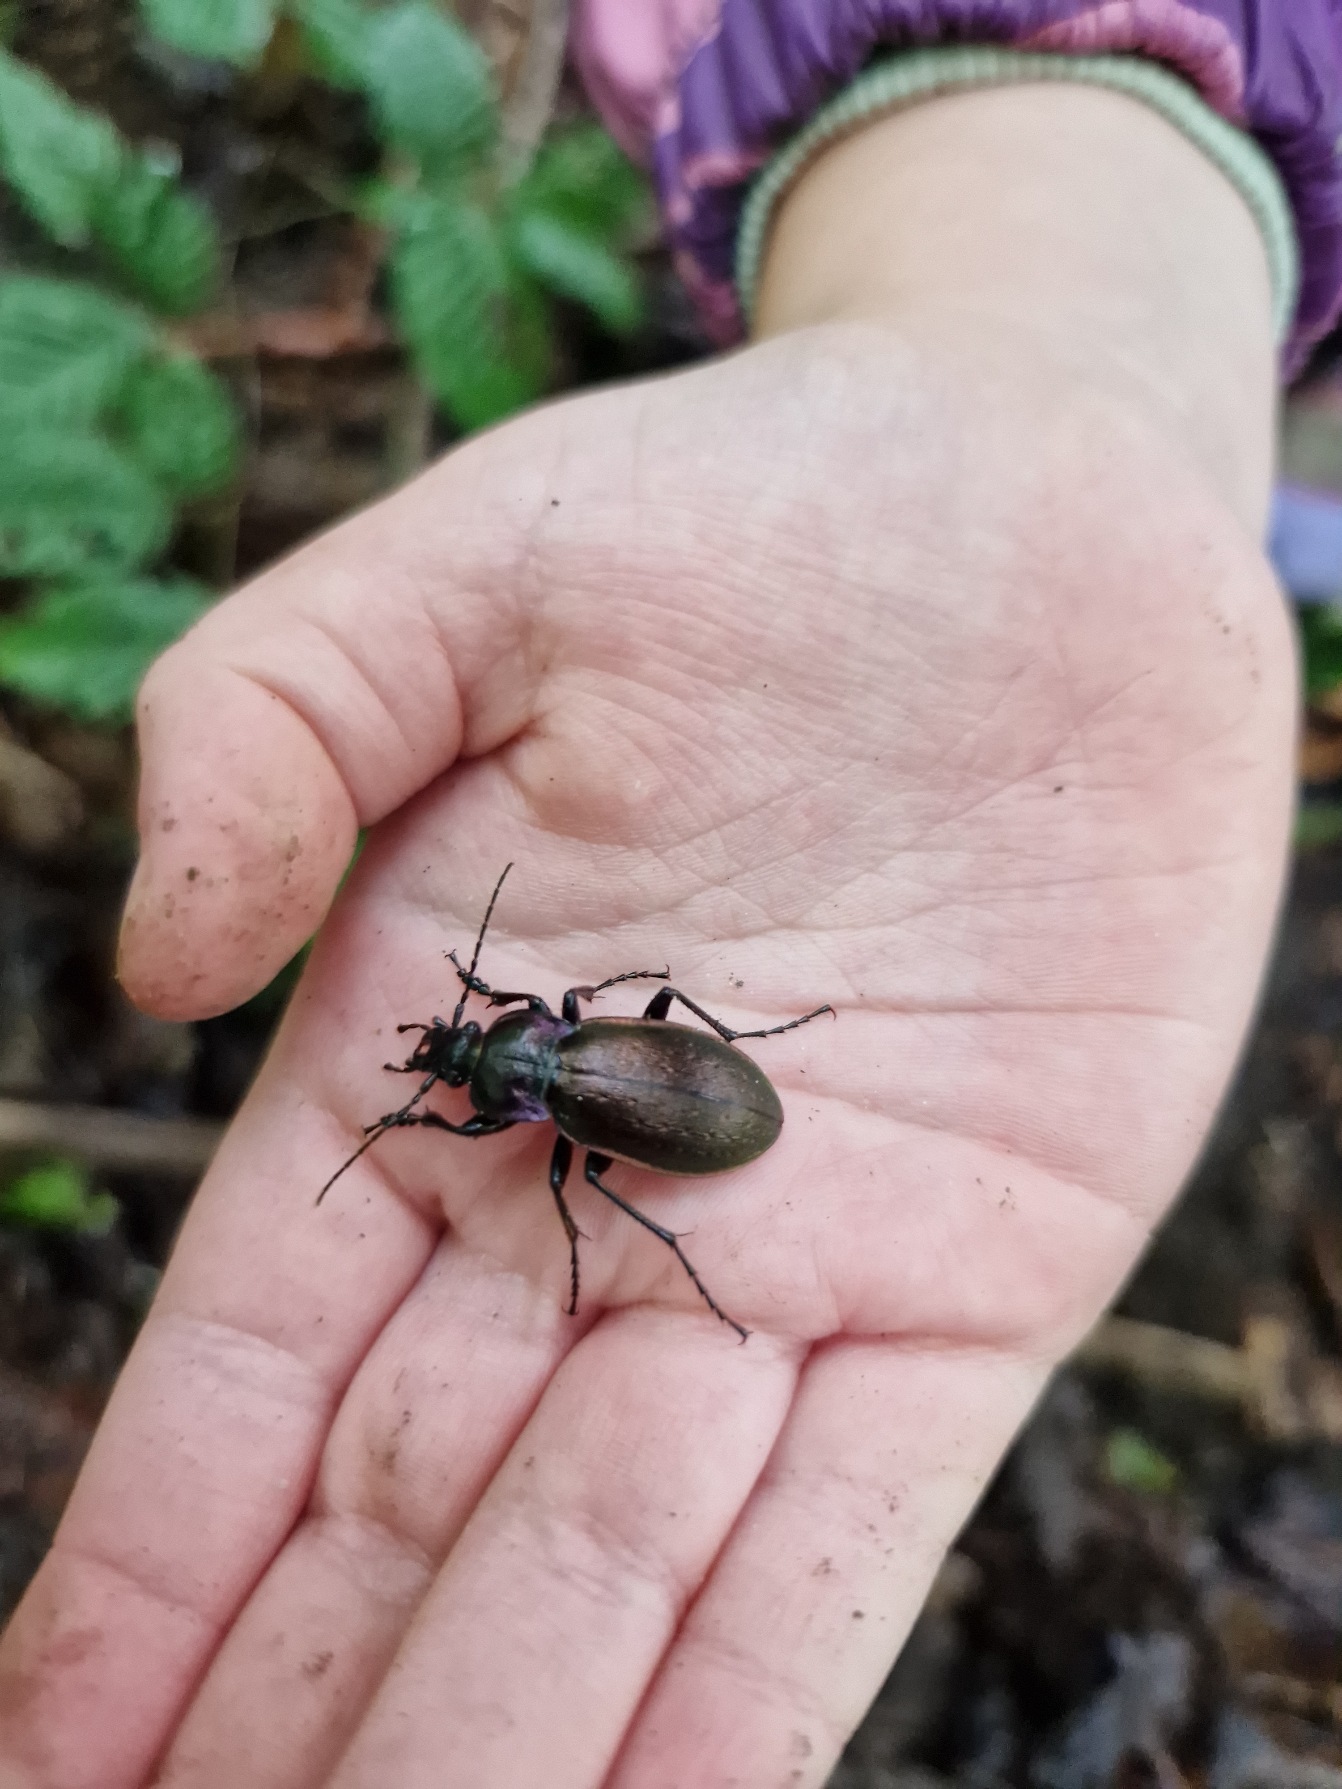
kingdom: Animalia
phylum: Arthropoda
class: Insecta
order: Coleoptera
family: Carabidae
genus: Carabus
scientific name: Carabus nemoralis
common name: Kratløber
